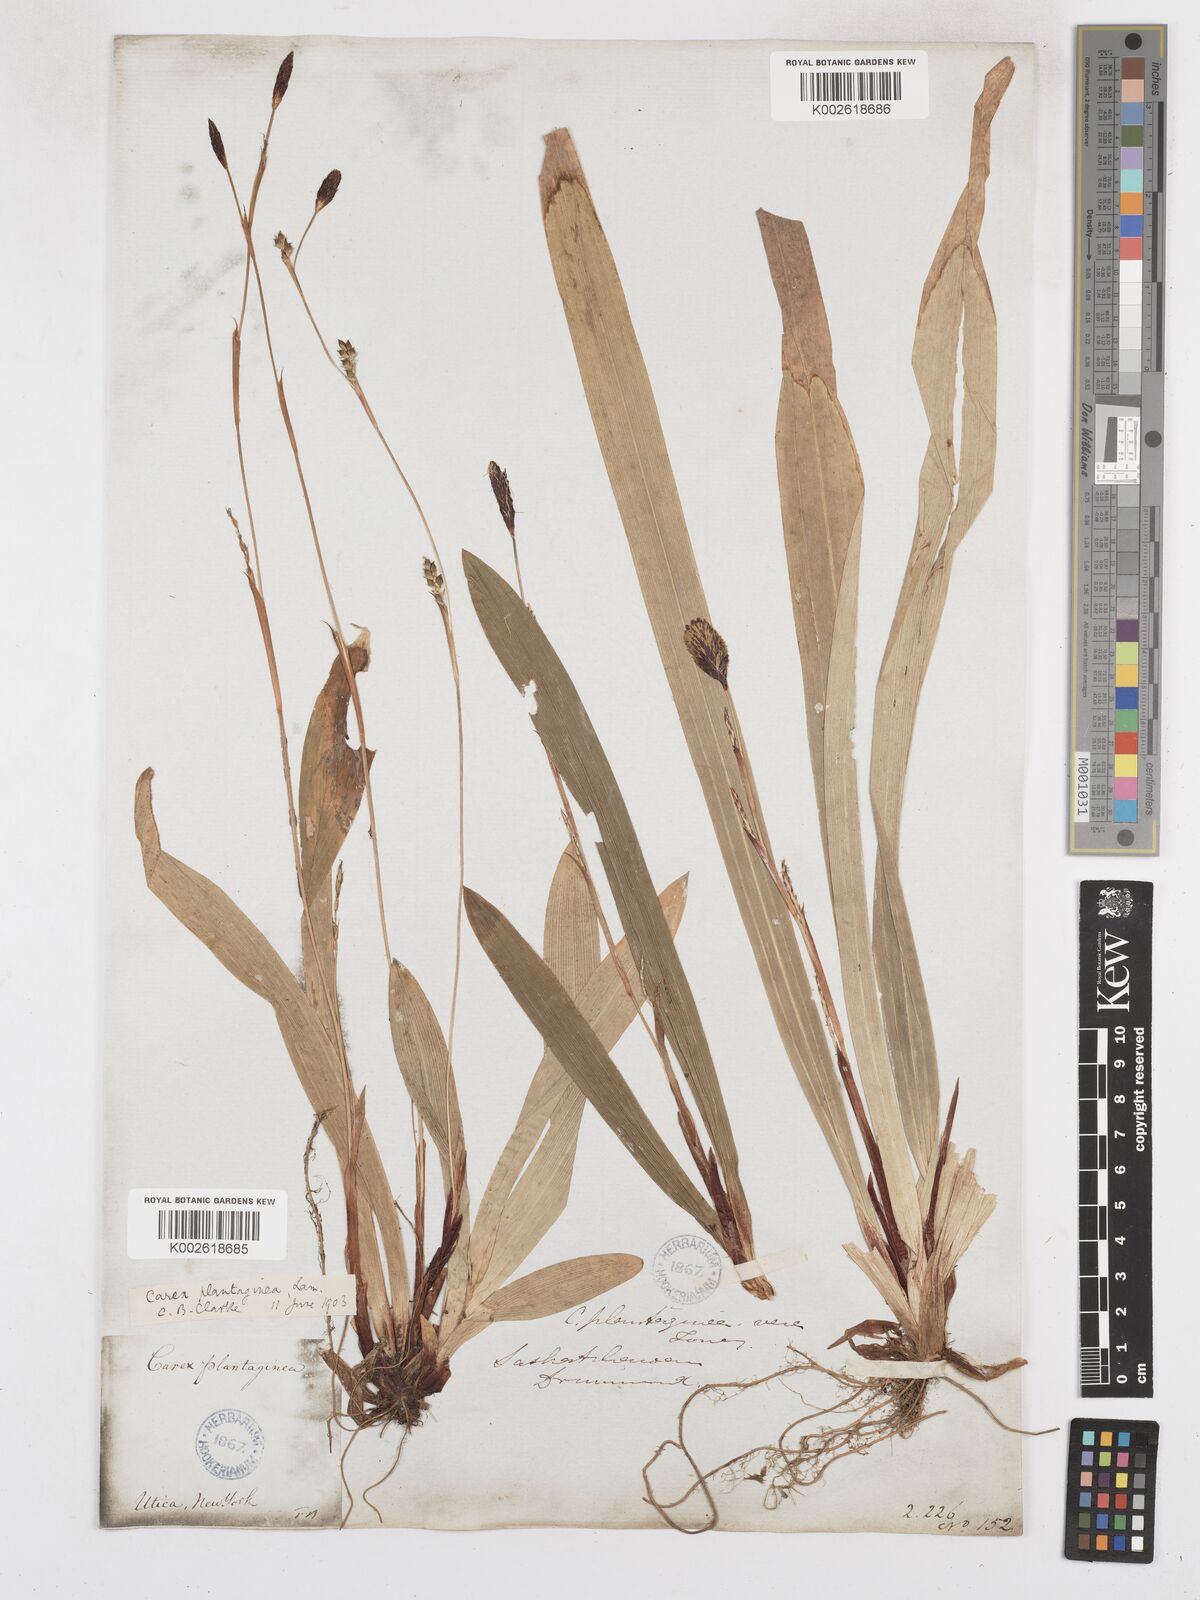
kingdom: Plantae
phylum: Tracheophyta
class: Liliopsida
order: Poales
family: Cyperaceae
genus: Carex
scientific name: Carex plantaginea
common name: Plantain-leaved sedge
